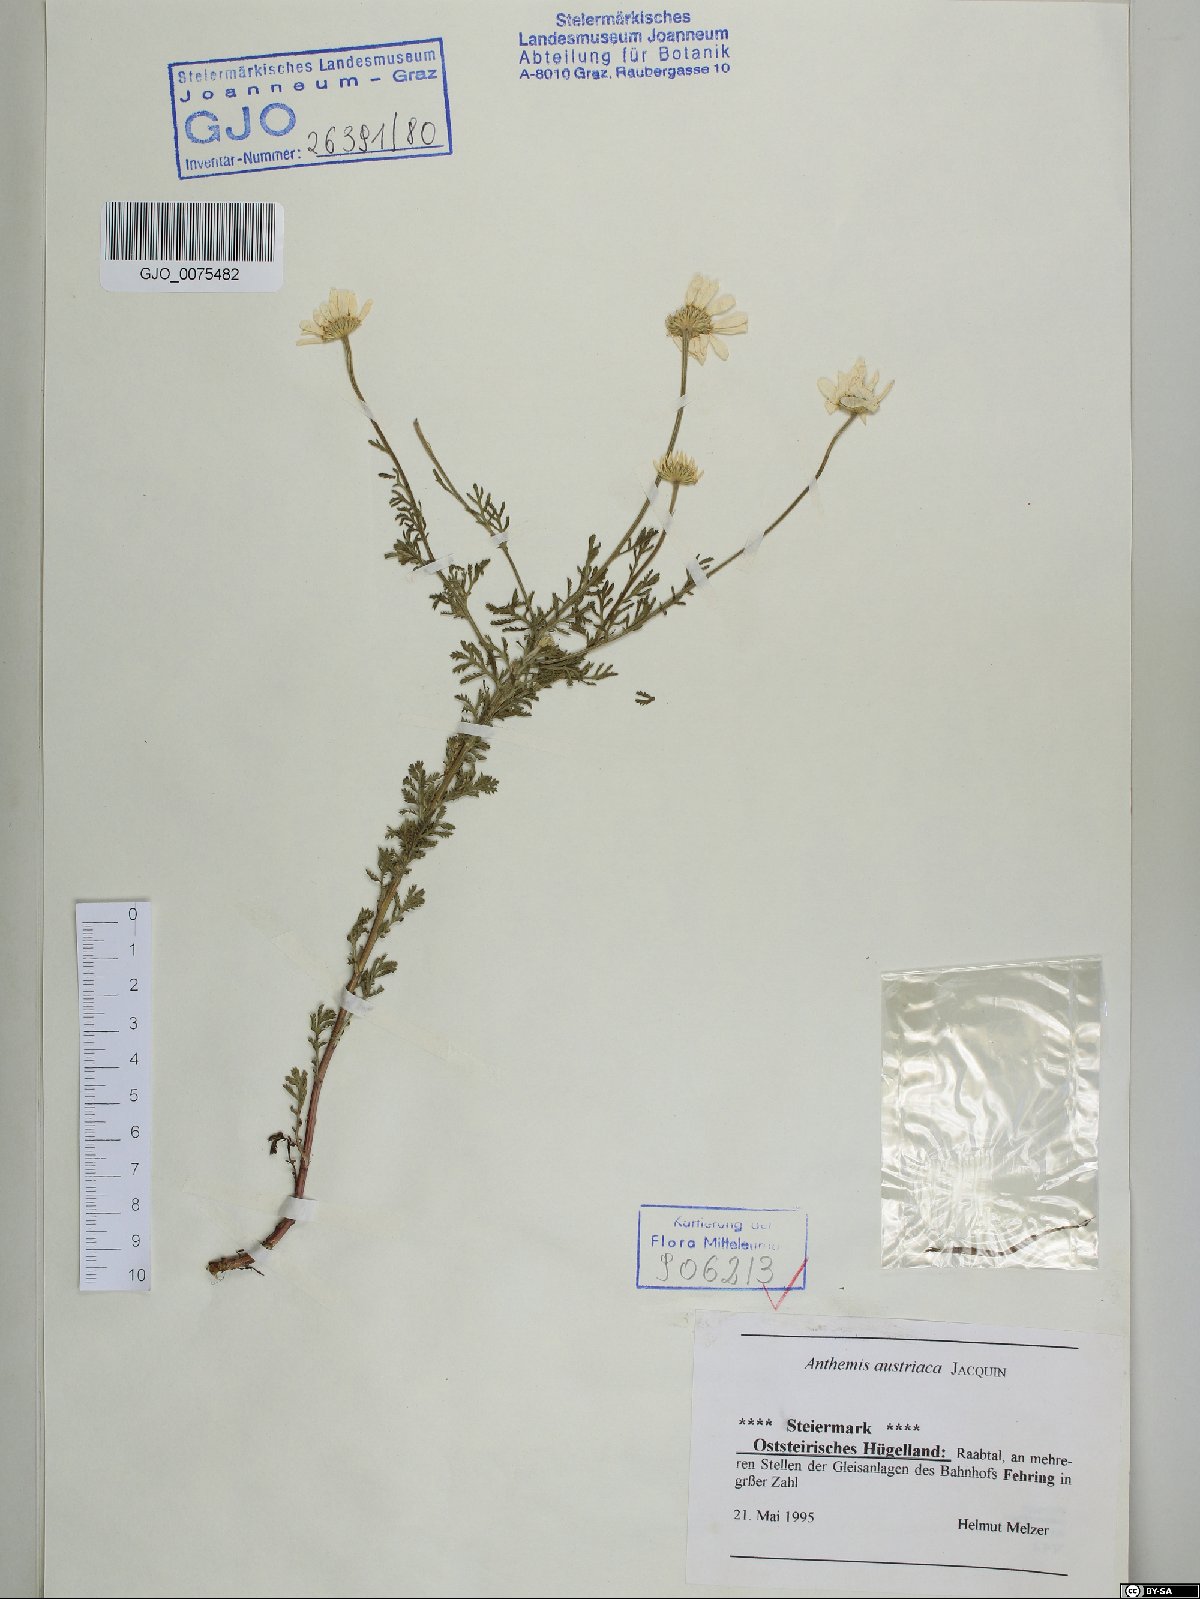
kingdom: Plantae
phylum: Tracheophyta
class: Magnoliopsida
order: Asterales
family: Asteraceae
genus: Cota
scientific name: Cota austriaca
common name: Austrian chamomile
